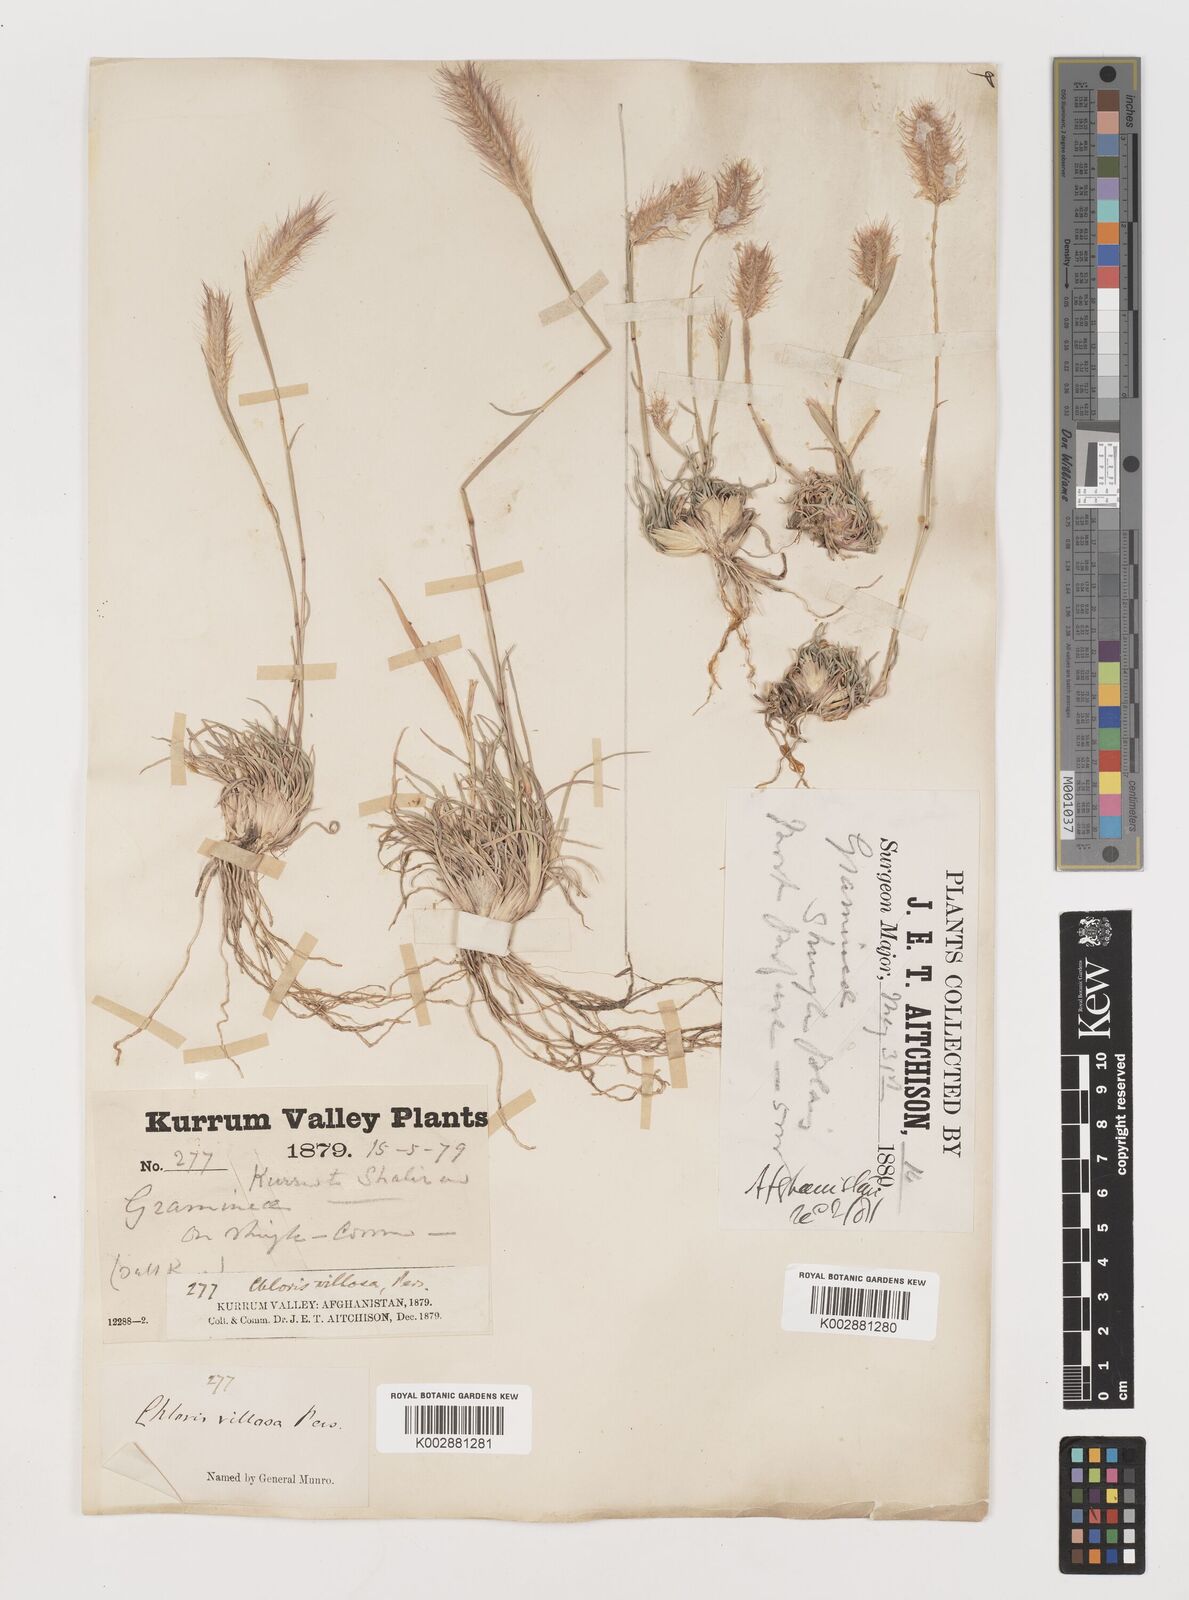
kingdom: Plantae
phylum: Tracheophyta
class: Liliopsida
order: Poales
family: Poaceae
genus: Tetrapogon
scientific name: Tetrapogon villosus
